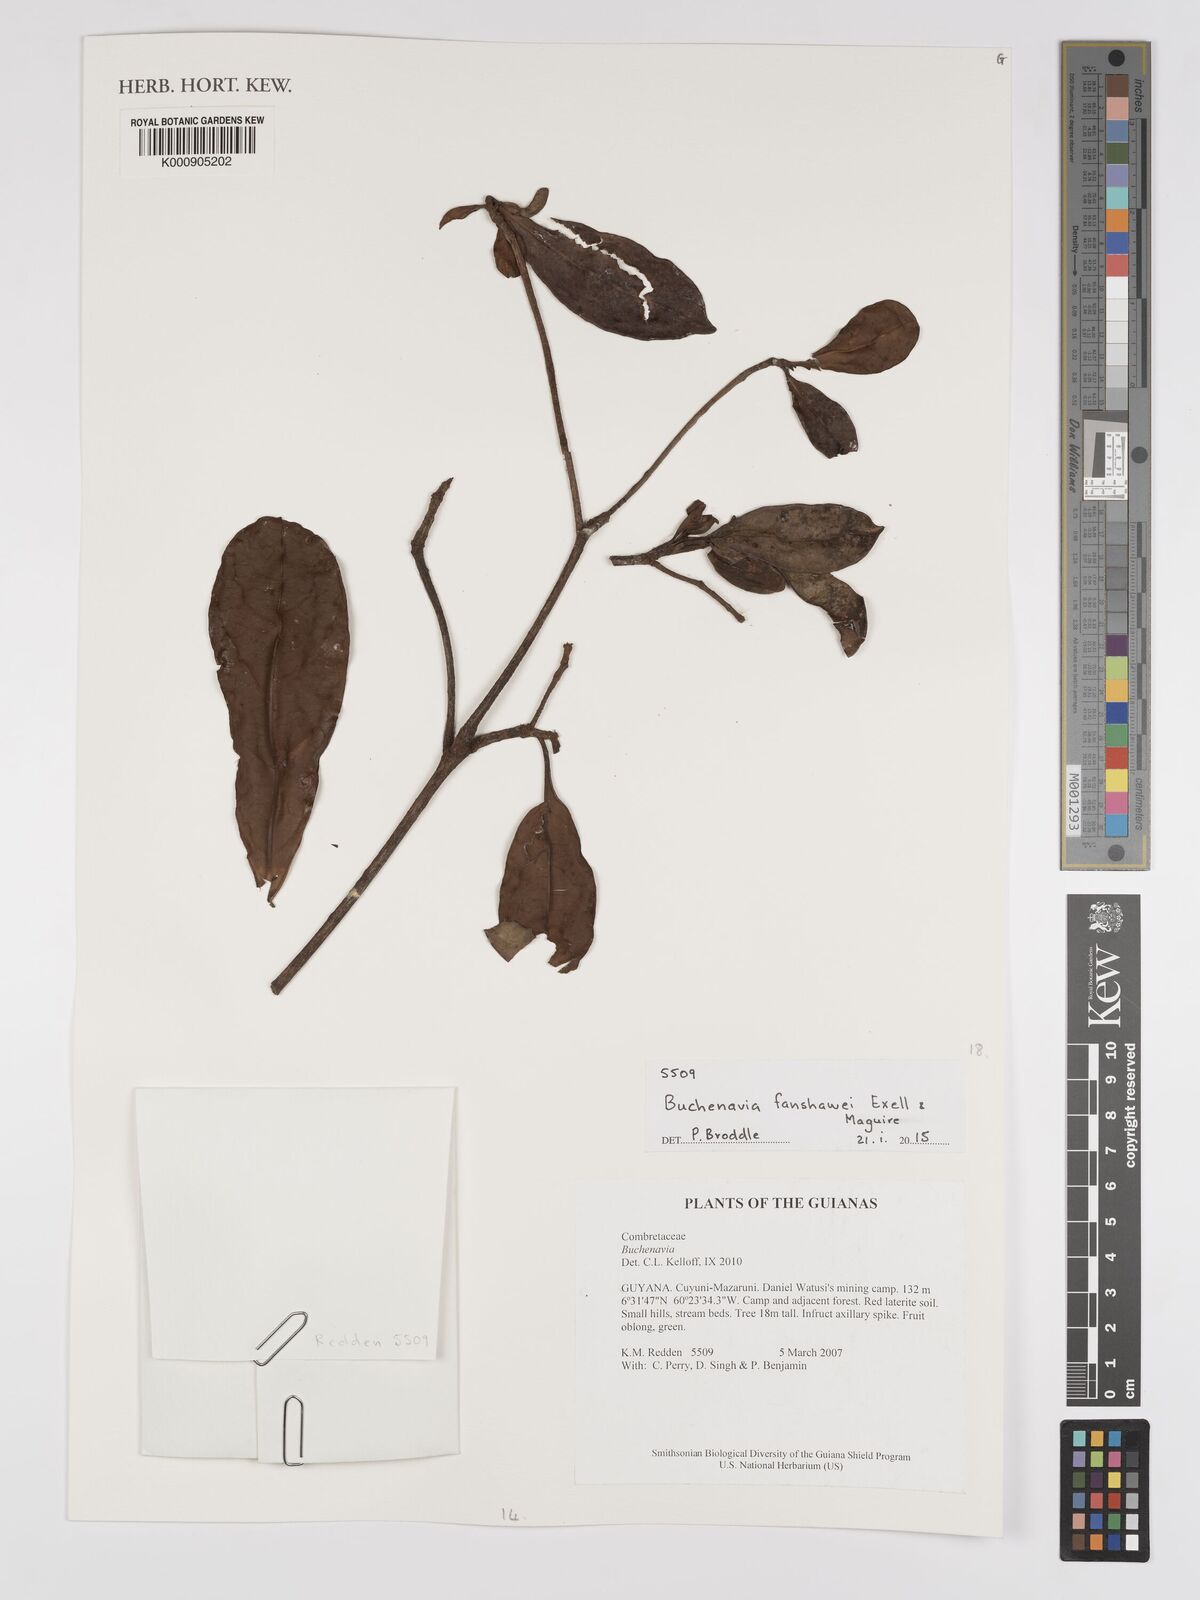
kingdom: Plantae
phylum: Tracheophyta
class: Magnoliopsida
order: Myrtales
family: Combretaceae
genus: Terminalia
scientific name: Terminalia fanshawei
